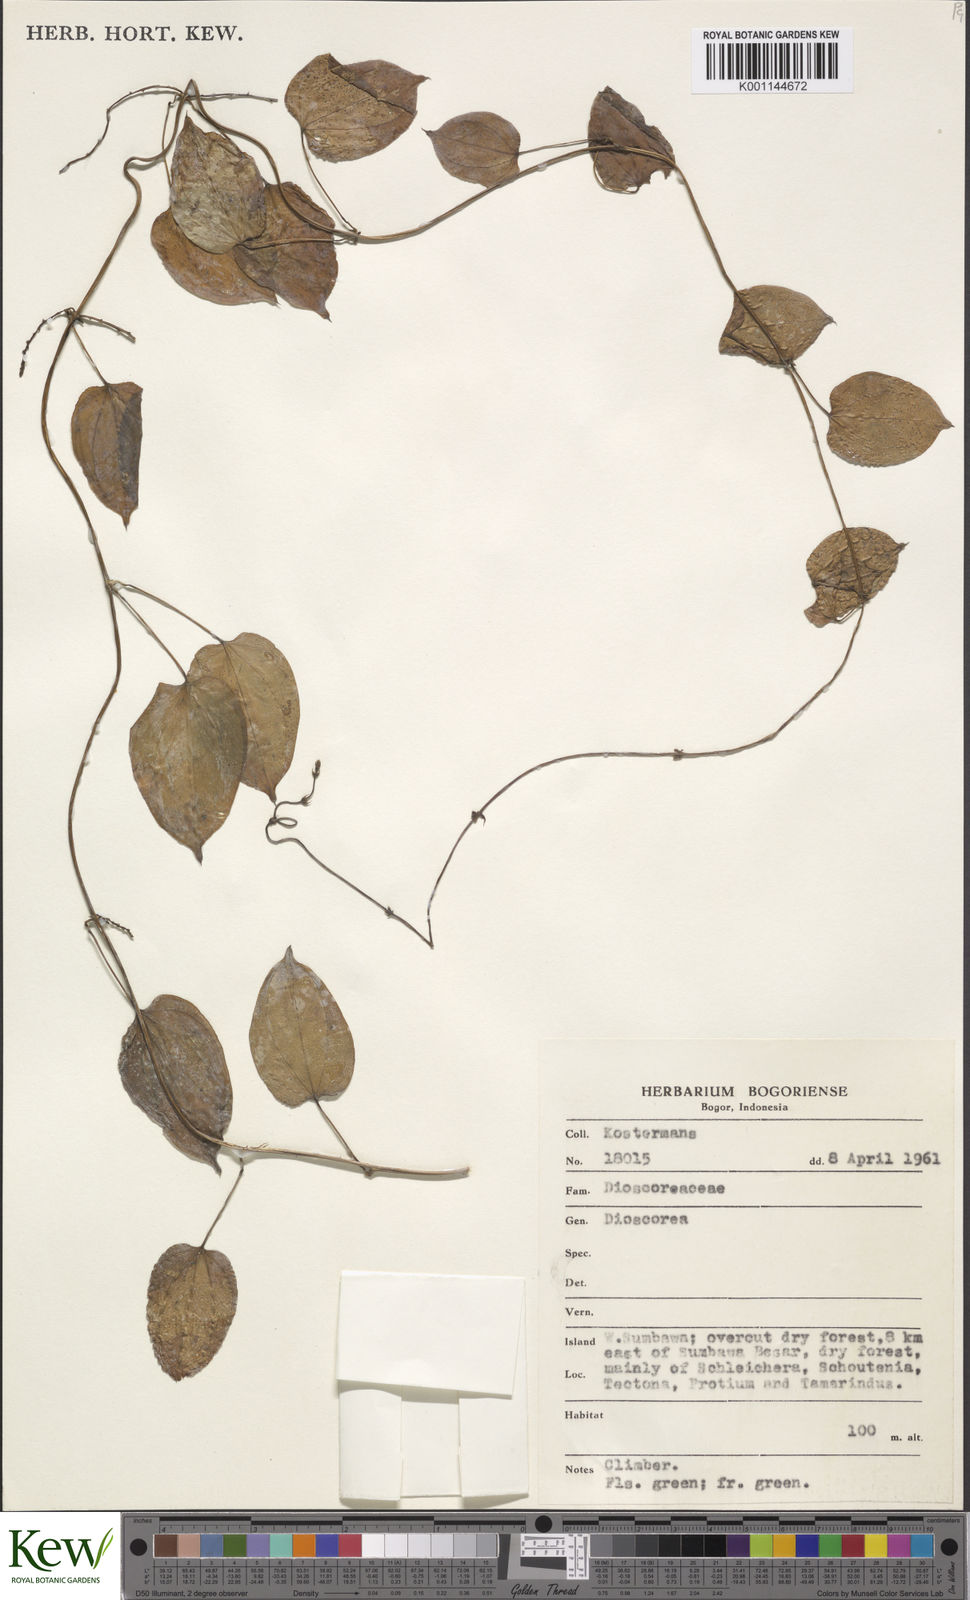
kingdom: Plantae
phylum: Tracheophyta
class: Liliopsida
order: Dioscoreales
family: Dioscoreaceae
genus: Dioscorea
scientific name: Dioscorea
